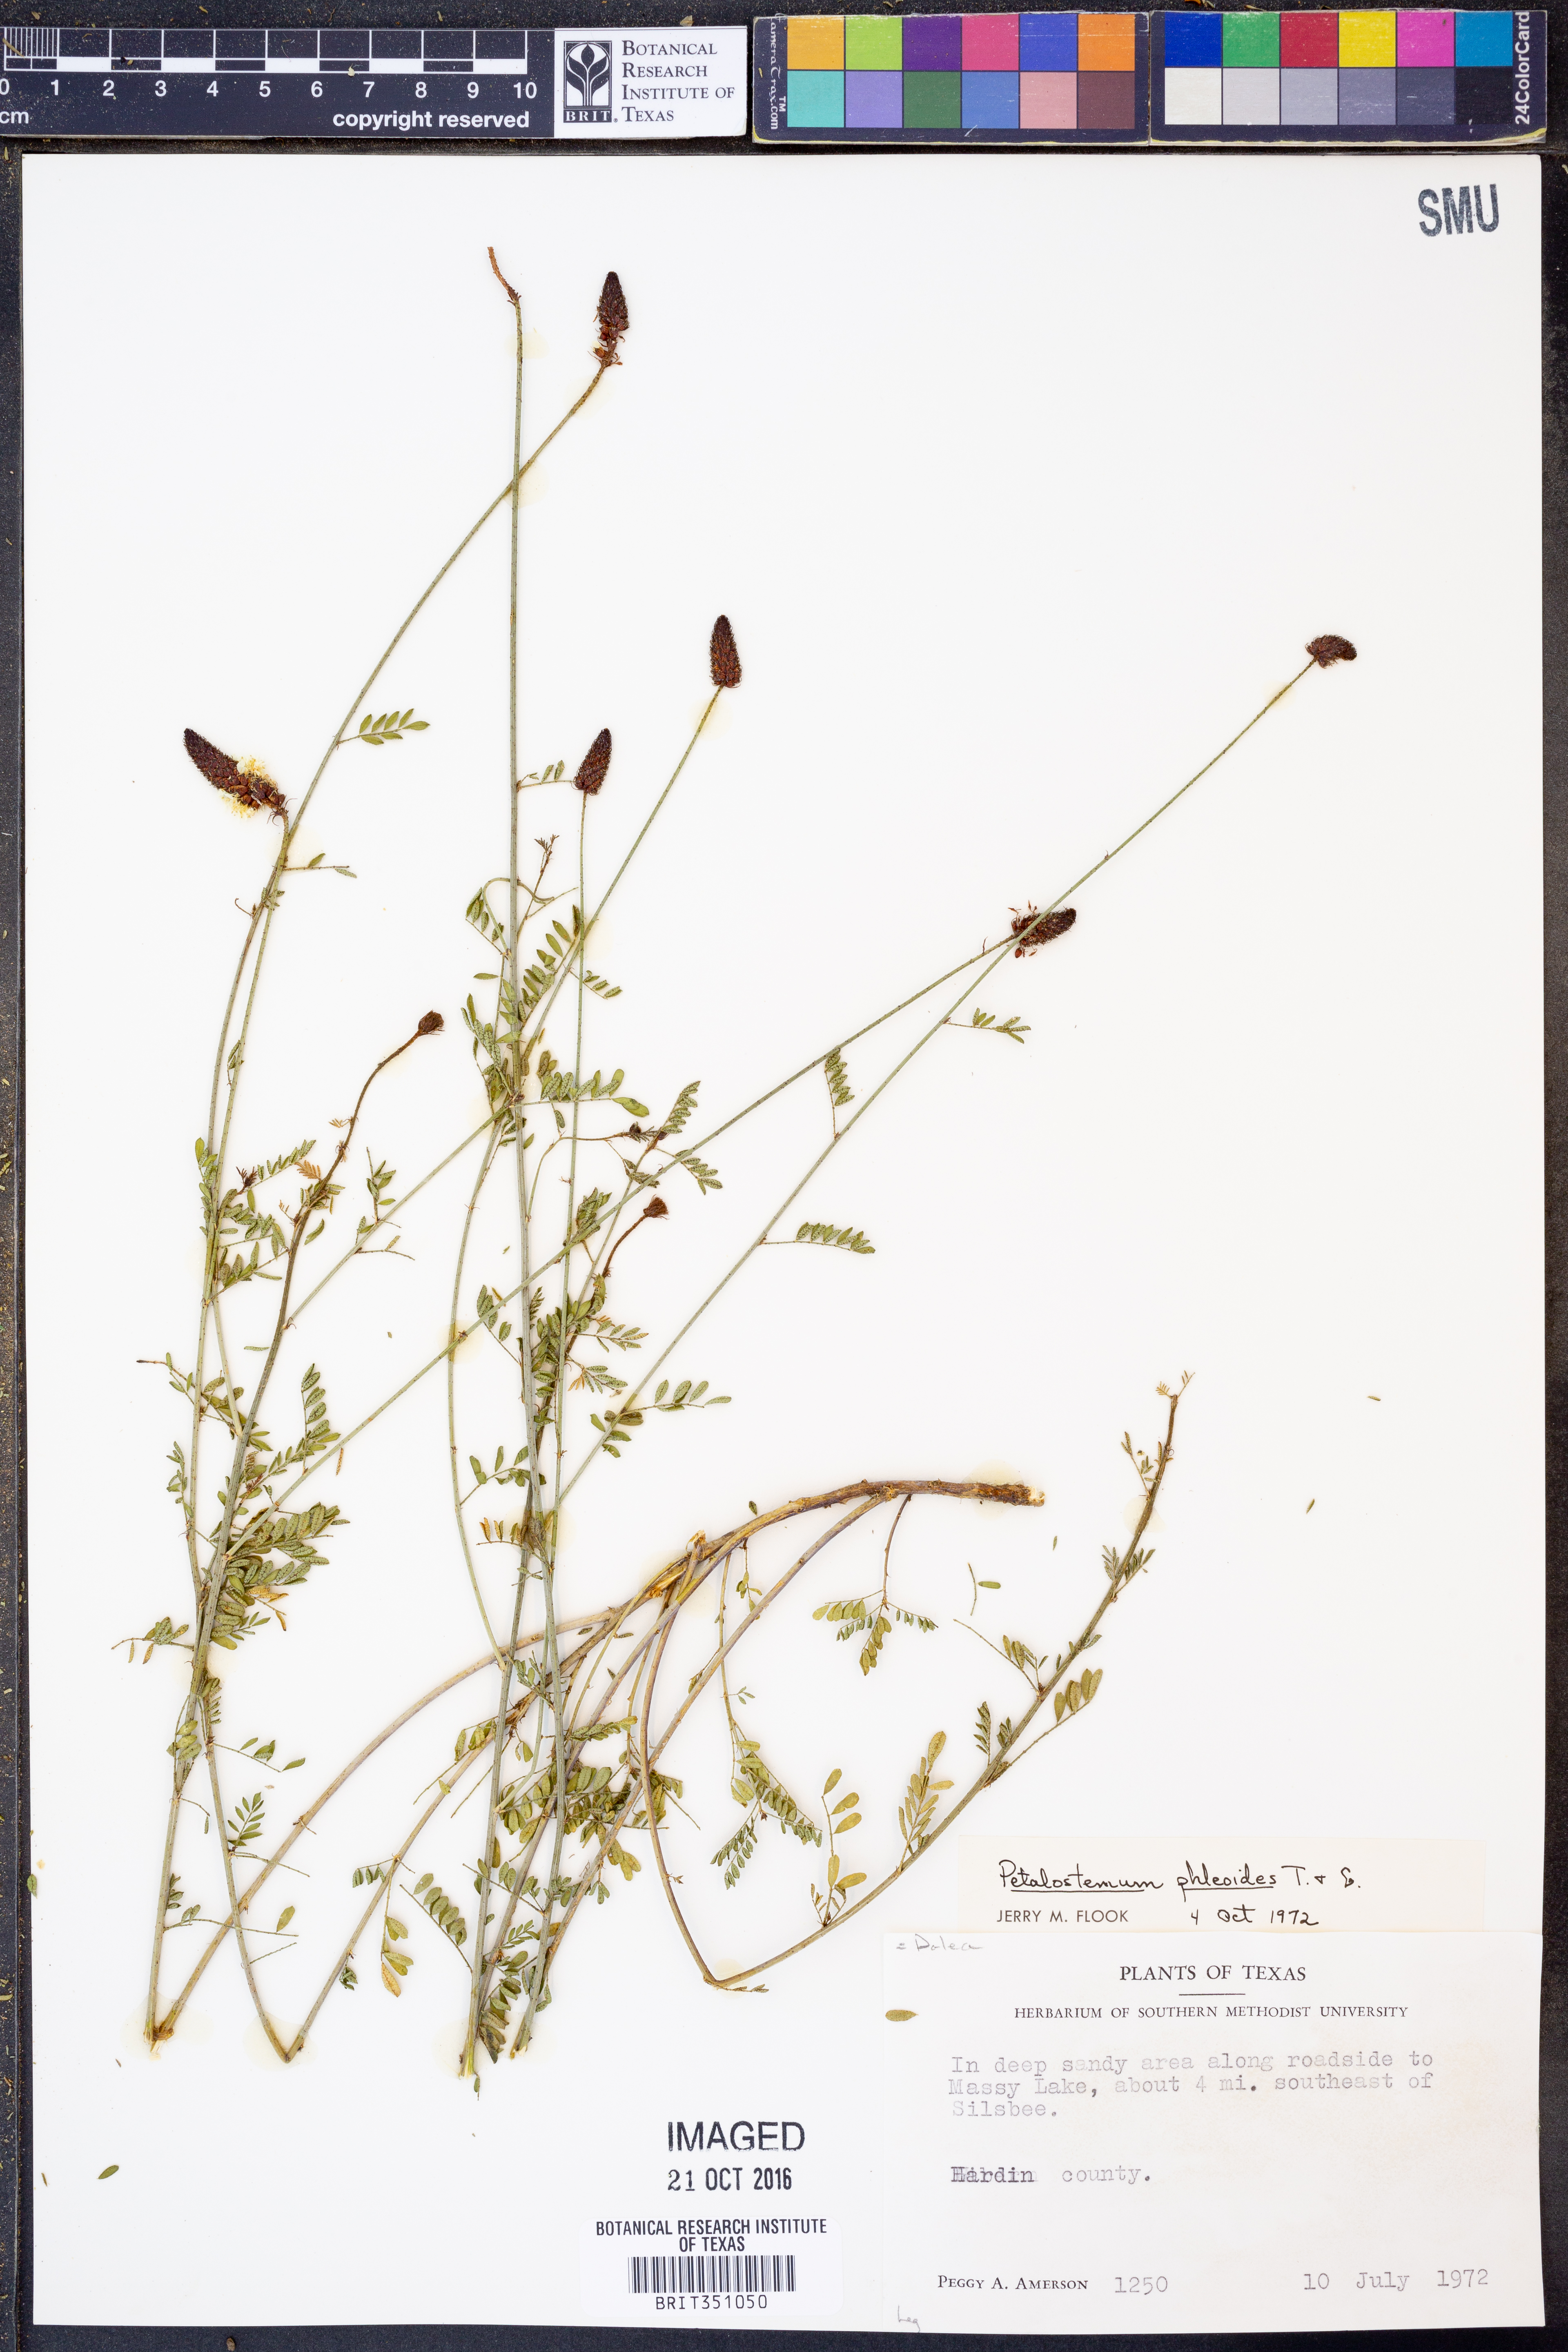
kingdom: Plantae
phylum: Tracheophyta
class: Magnoliopsida
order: Fabales
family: Fabaceae
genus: Dalea
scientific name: Dalea phleoides
